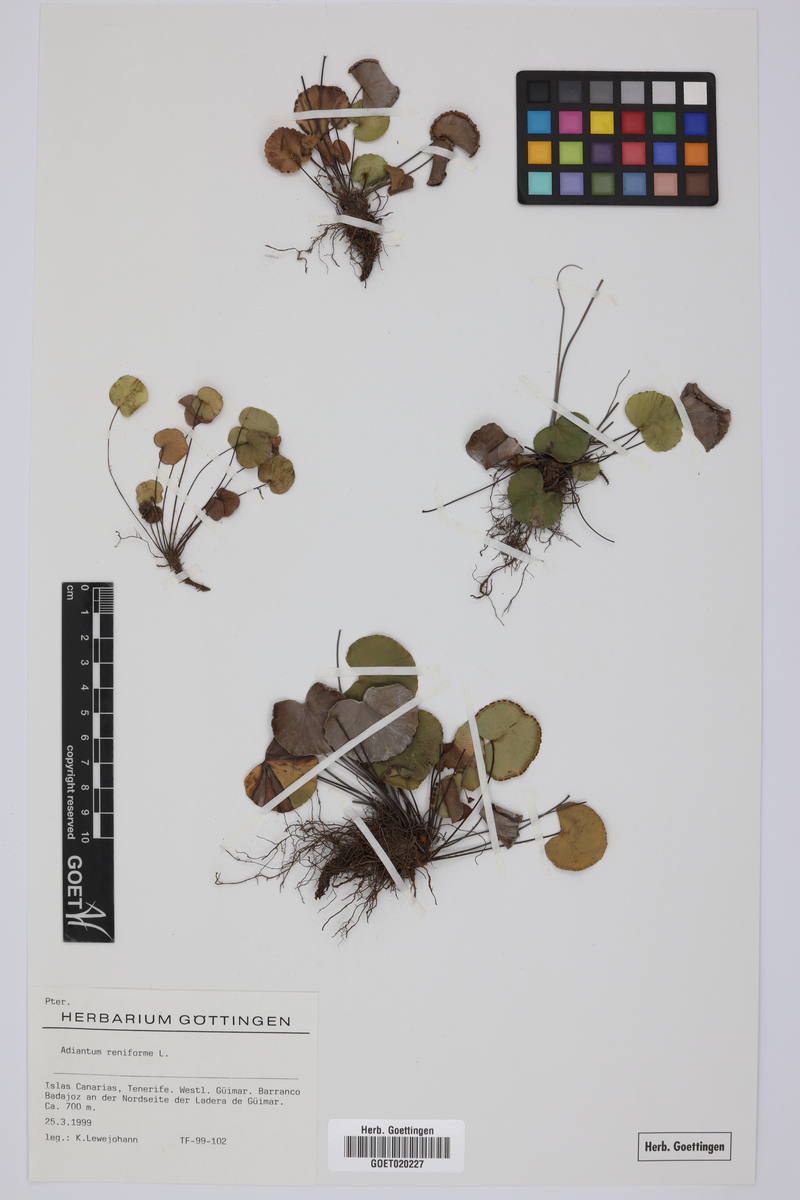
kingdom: Plantae
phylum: Tracheophyta
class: Polypodiopsida
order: Polypodiales
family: Pteridaceae
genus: Adiantum
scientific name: Adiantum reniforme
